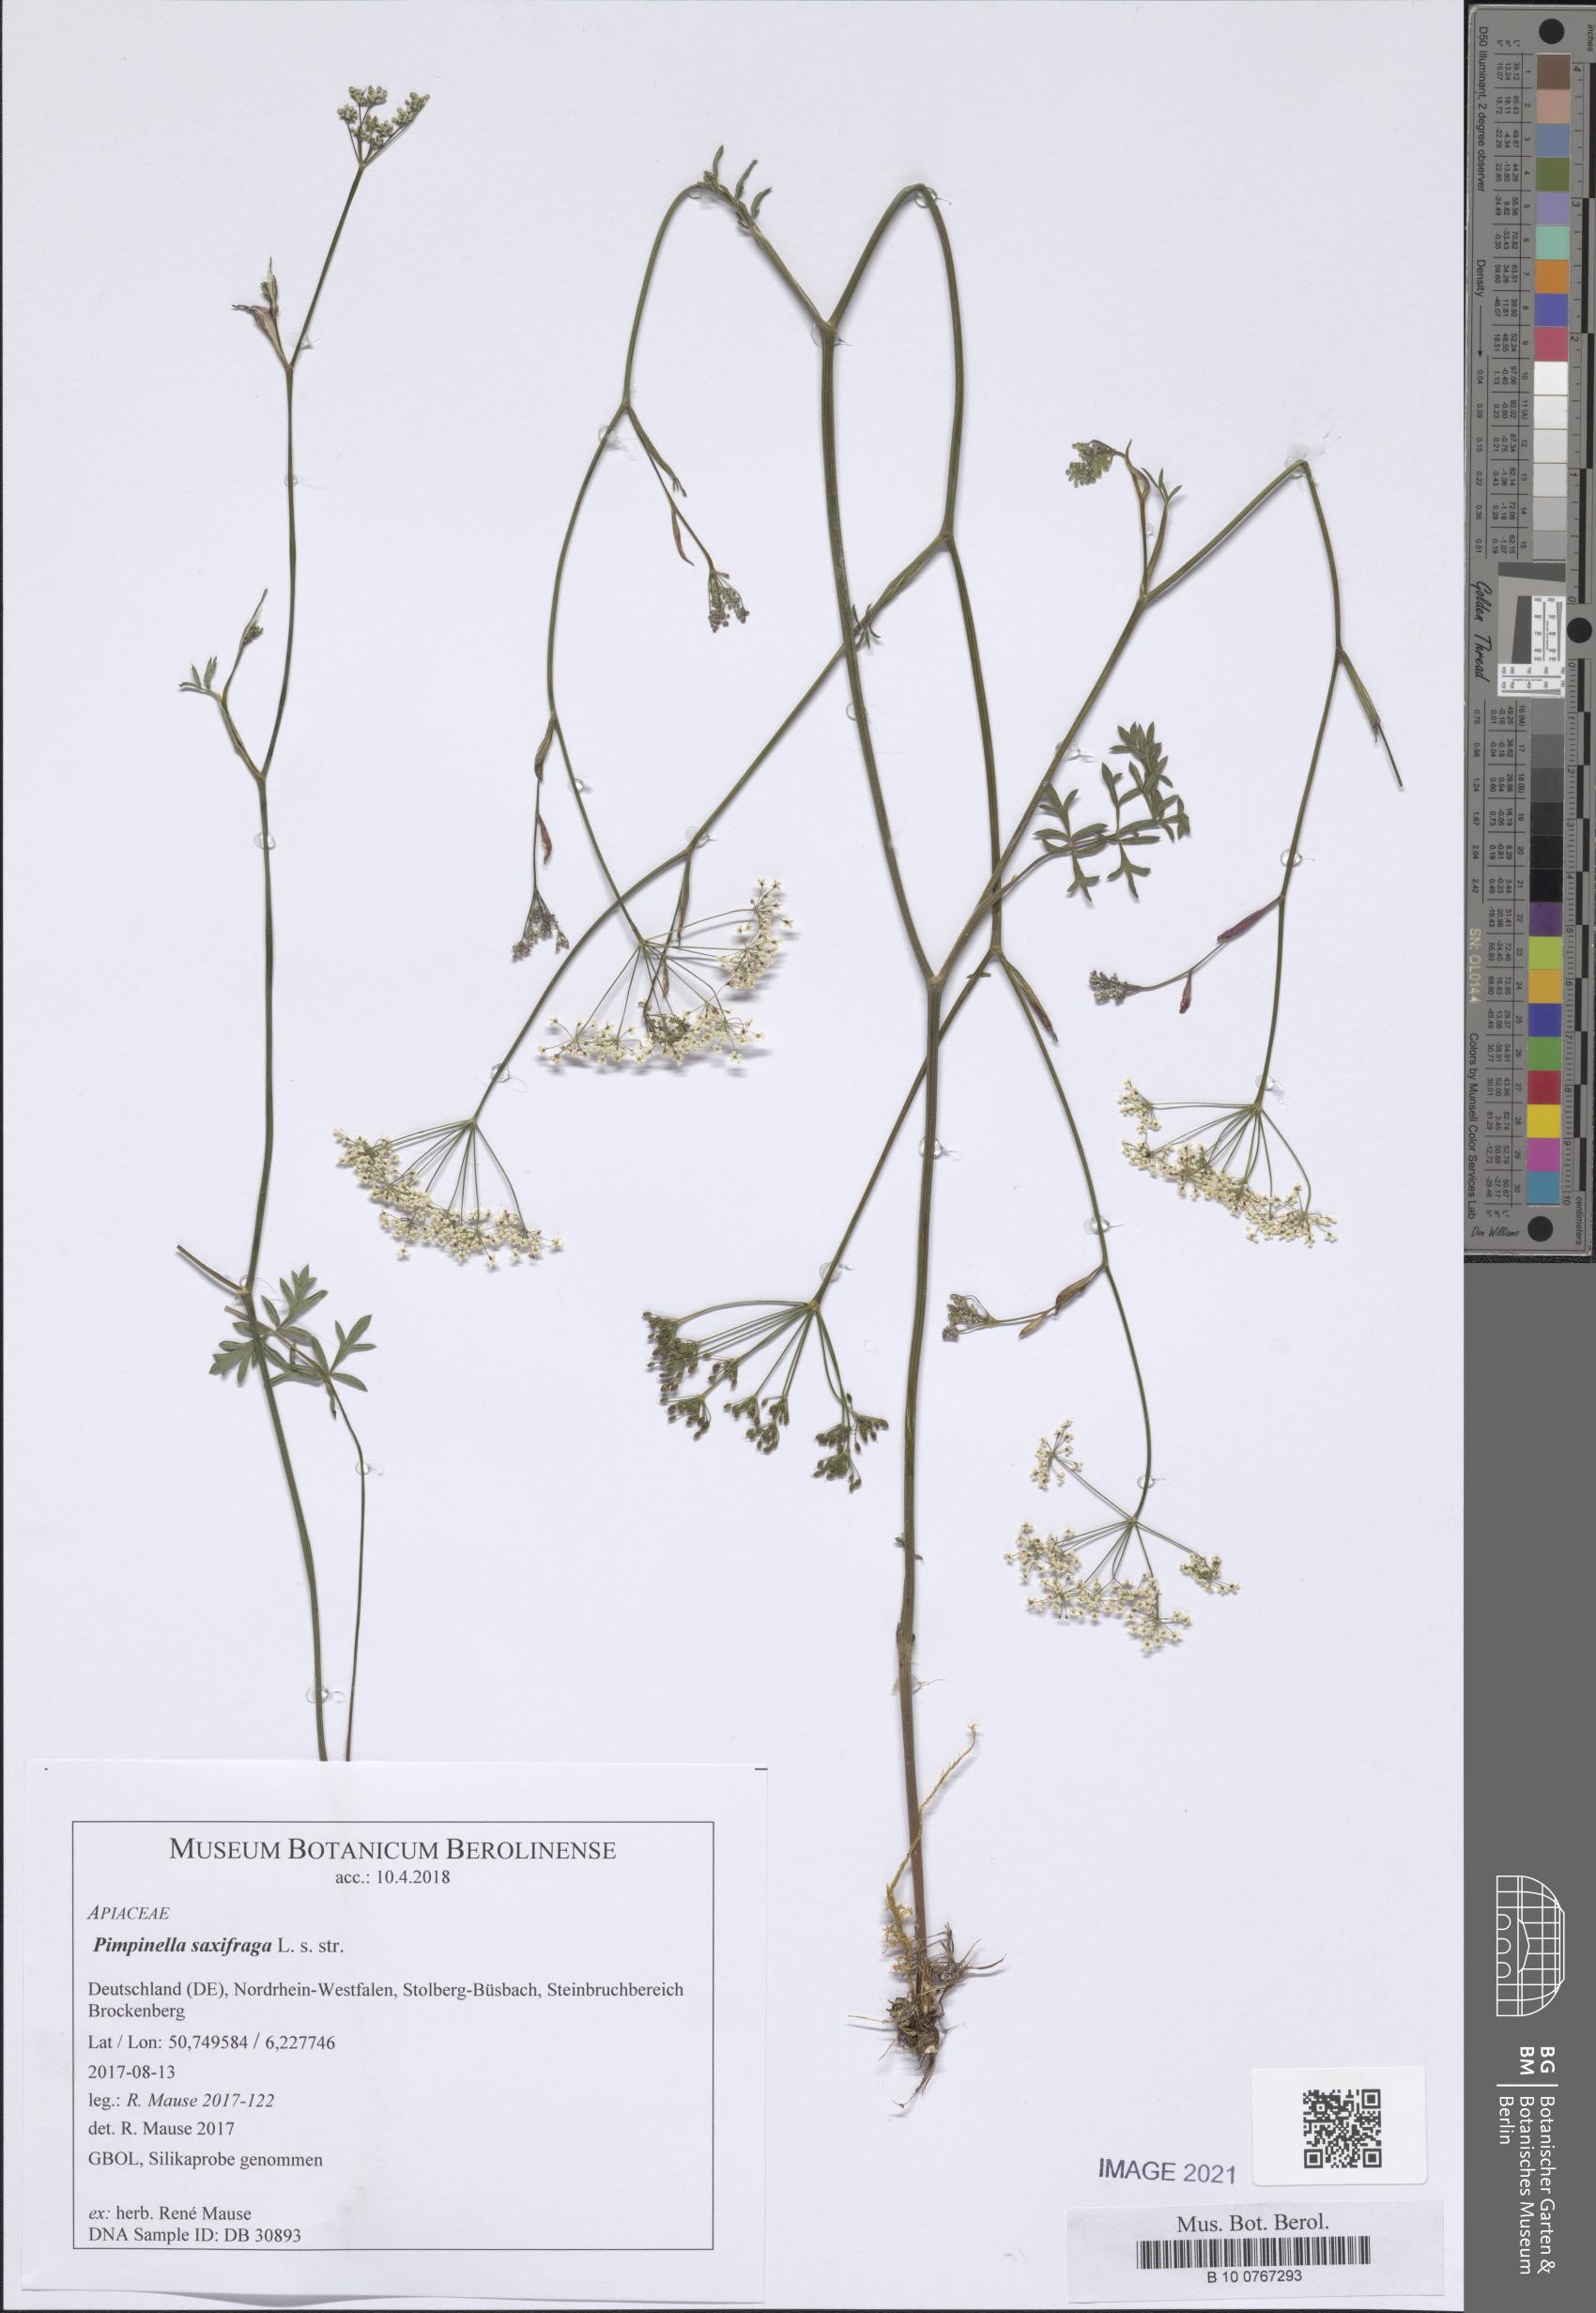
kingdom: Plantae
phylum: Tracheophyta
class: Magnoliopsida
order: Apiales
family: Apiaceae
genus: Pimpinella
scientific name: Pimpinella saxifraga
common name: Burnet-saxifrage
